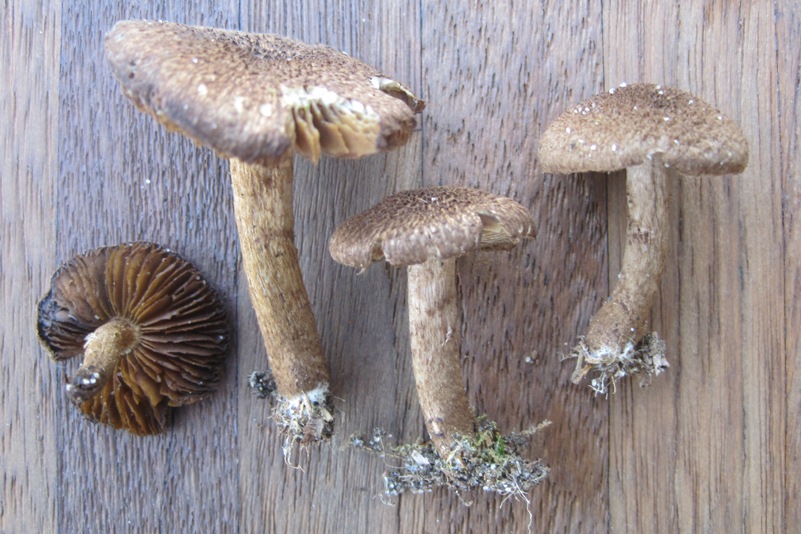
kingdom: Fungi
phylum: Basidiomycota
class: Agaricomycetes
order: Agaricales
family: Inocybaceae
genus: Inocybe
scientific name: Inocybe lanuginosa
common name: uldskællet trævlhat
